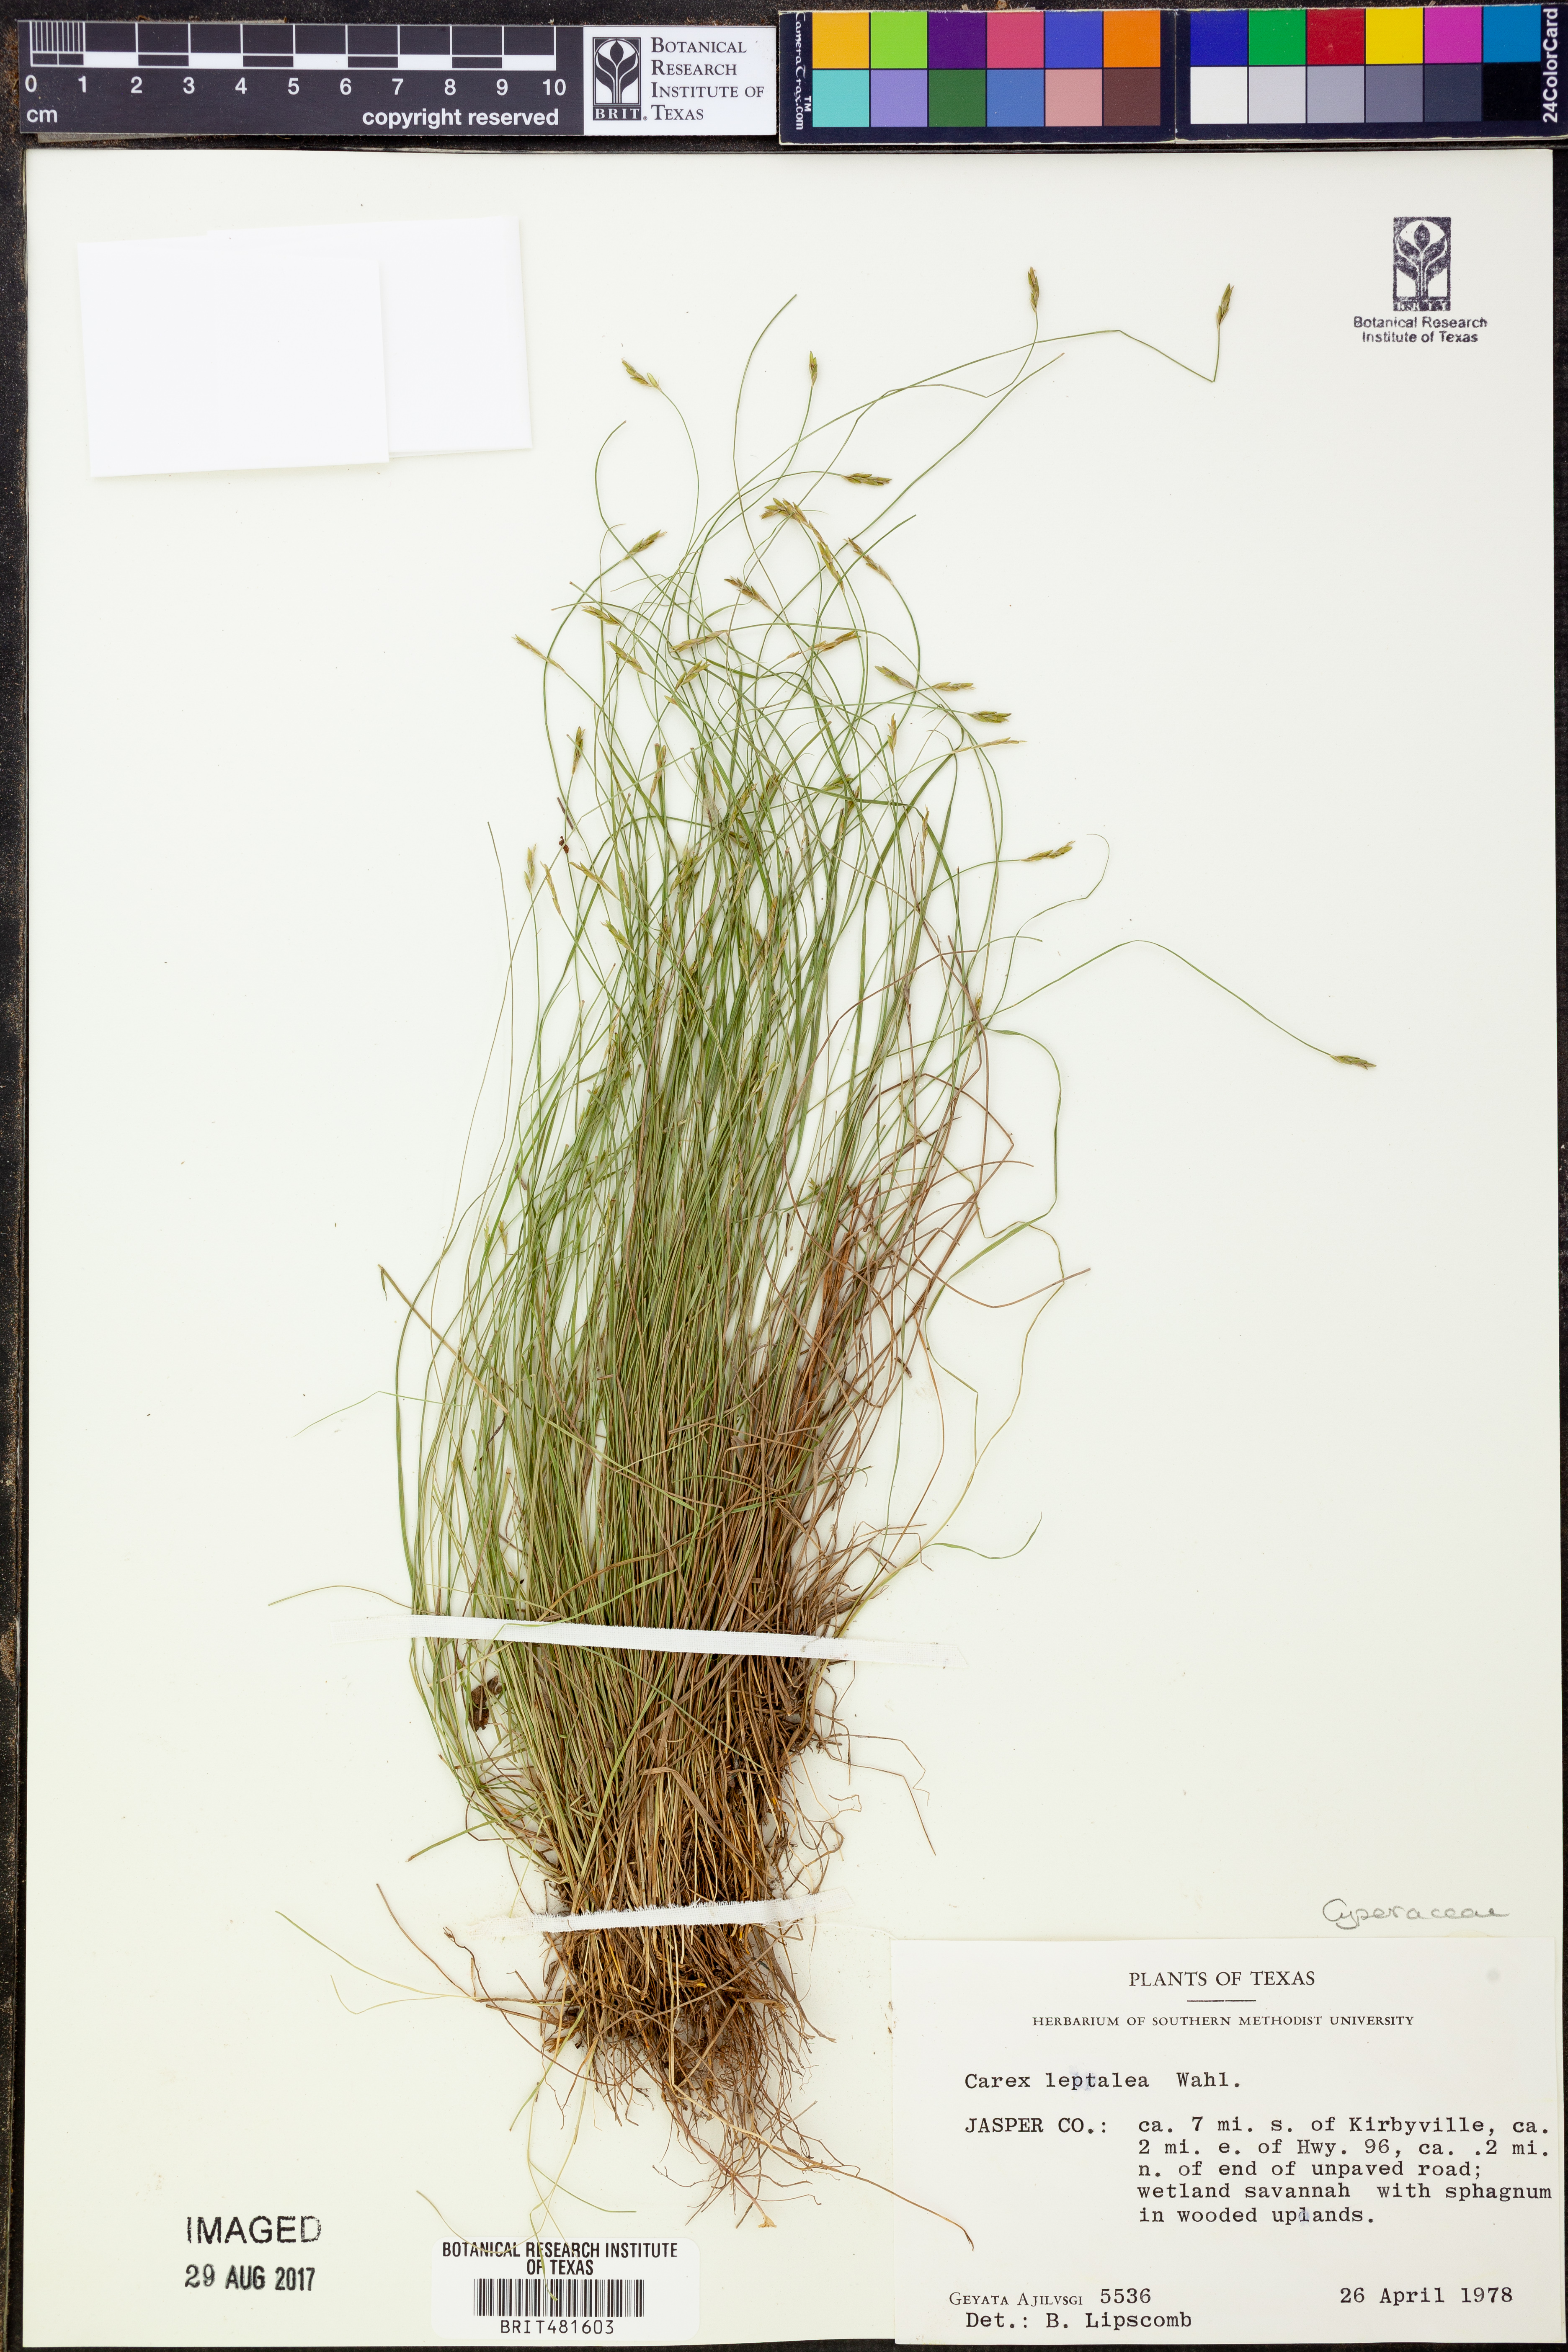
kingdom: Plantae
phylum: Tracheophyta
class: Liliopsida
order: Poales
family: Cyperaceae
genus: Carex
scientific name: Carex leptalea
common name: Bristly-stalked sedge
